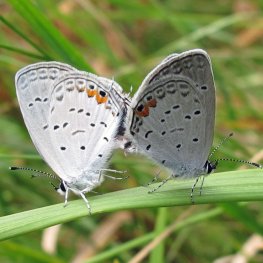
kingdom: Animalia
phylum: Arthropoda
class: Insecta
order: Lepidoptera
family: Lycaenidae
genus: Elkalyce
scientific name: Elkalyce comyntas
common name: Eastern Tailed-Blue
